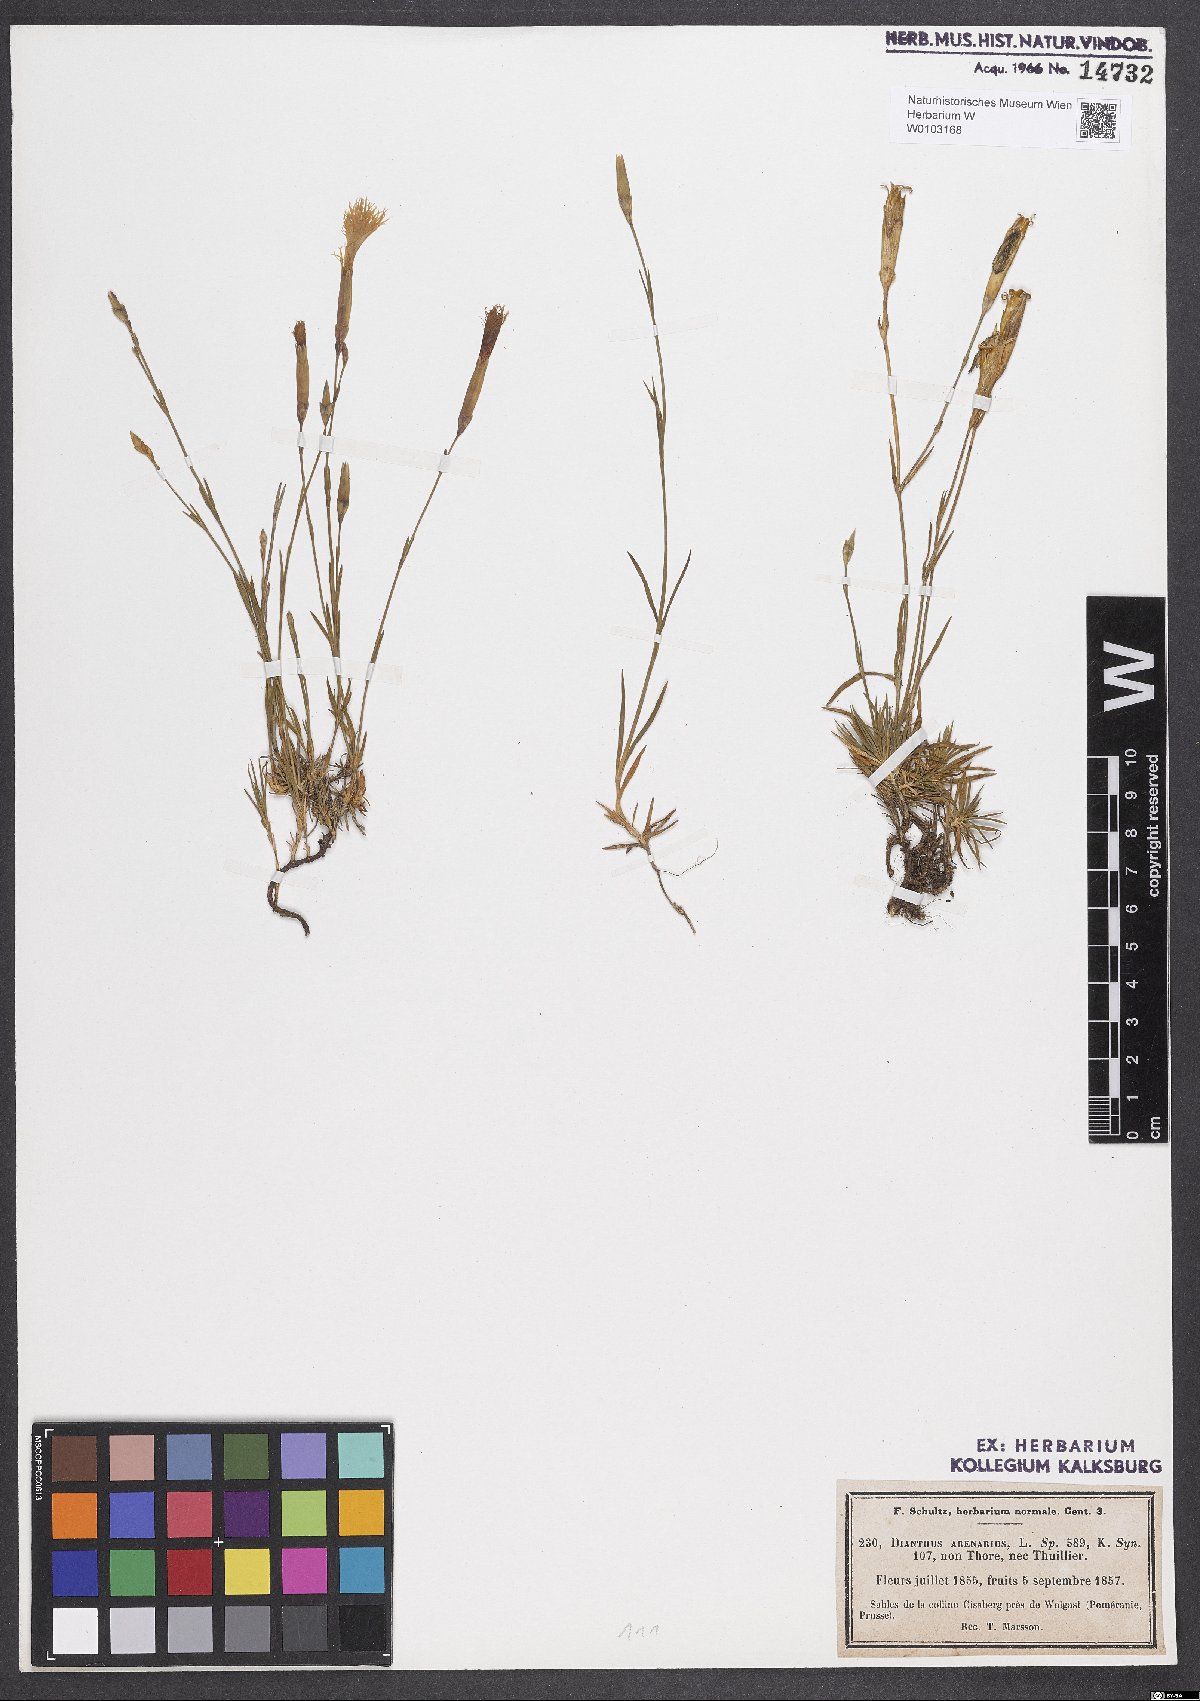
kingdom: Plantae
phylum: Tracheophyta
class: Magnoliopsida
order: Caryophyllales
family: Caryophyllaceae
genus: Dianthus
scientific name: Dianthus arenarius
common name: Stone pink
